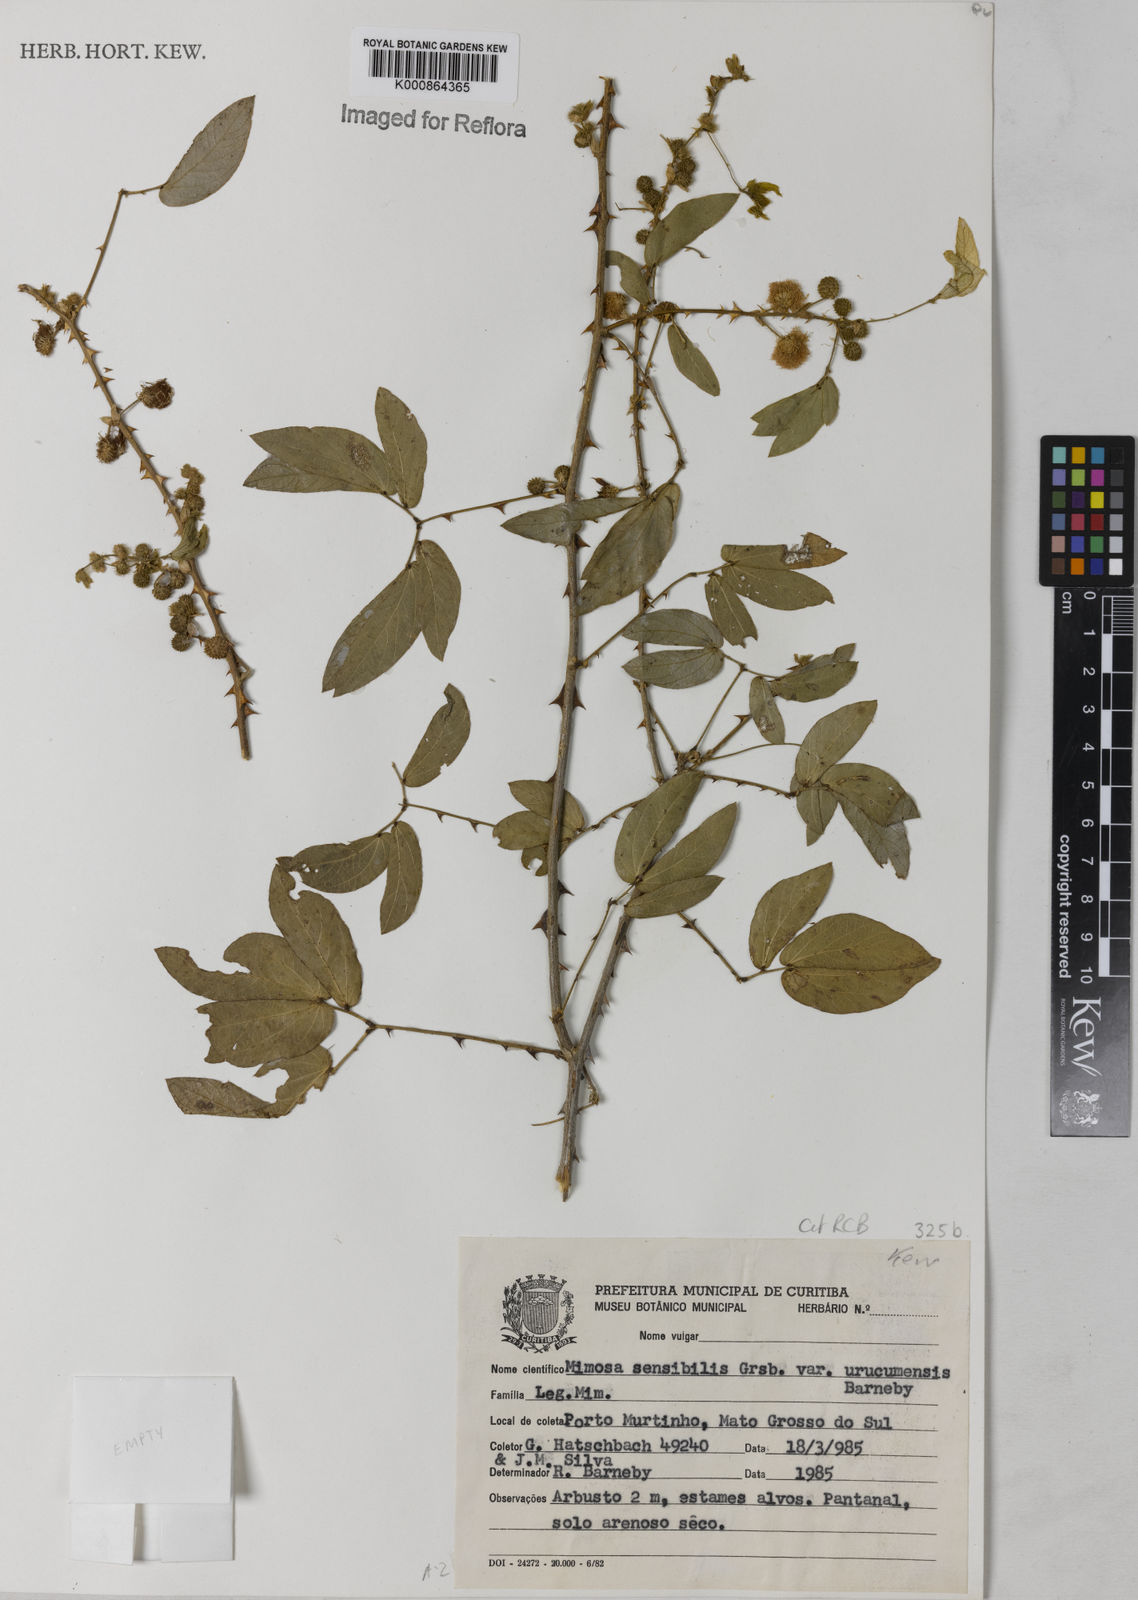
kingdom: Plantae
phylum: Tracheophyta
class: Magnoliopsida
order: Fabales
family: Fabaceae
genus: Mimosa
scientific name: Mimosa sensibilis
